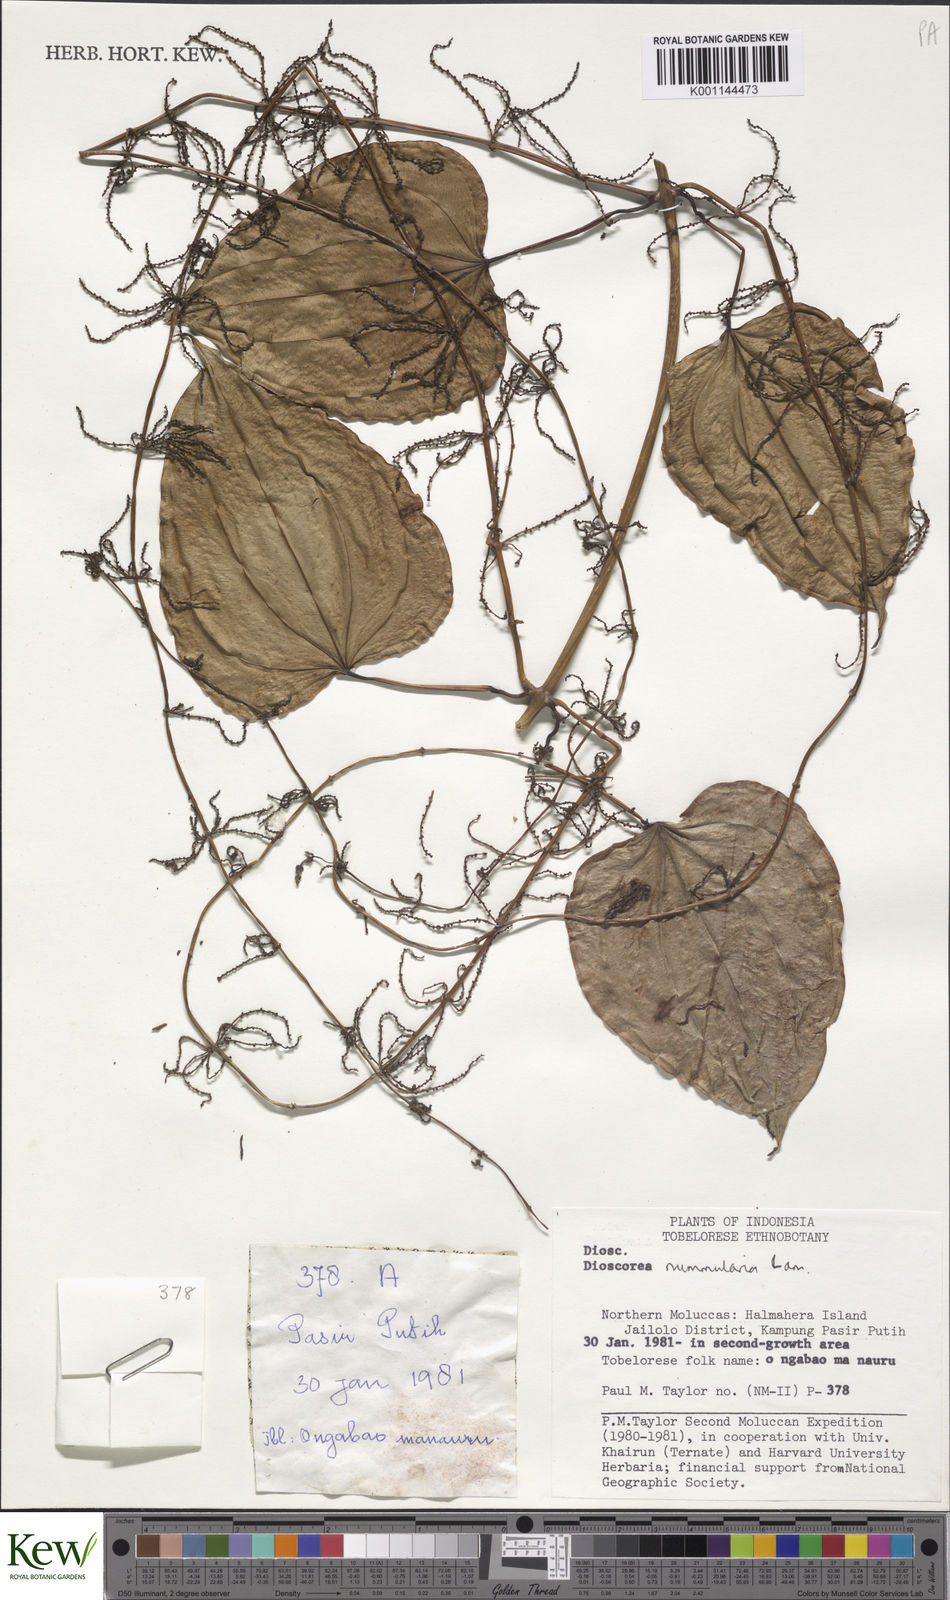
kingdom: Plantae
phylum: Tracheophyta
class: Liliopsida
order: Dioscoreales
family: Dioscoreaceae
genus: Dioscorea
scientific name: Dioscorea nummularia
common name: Pacific yam
